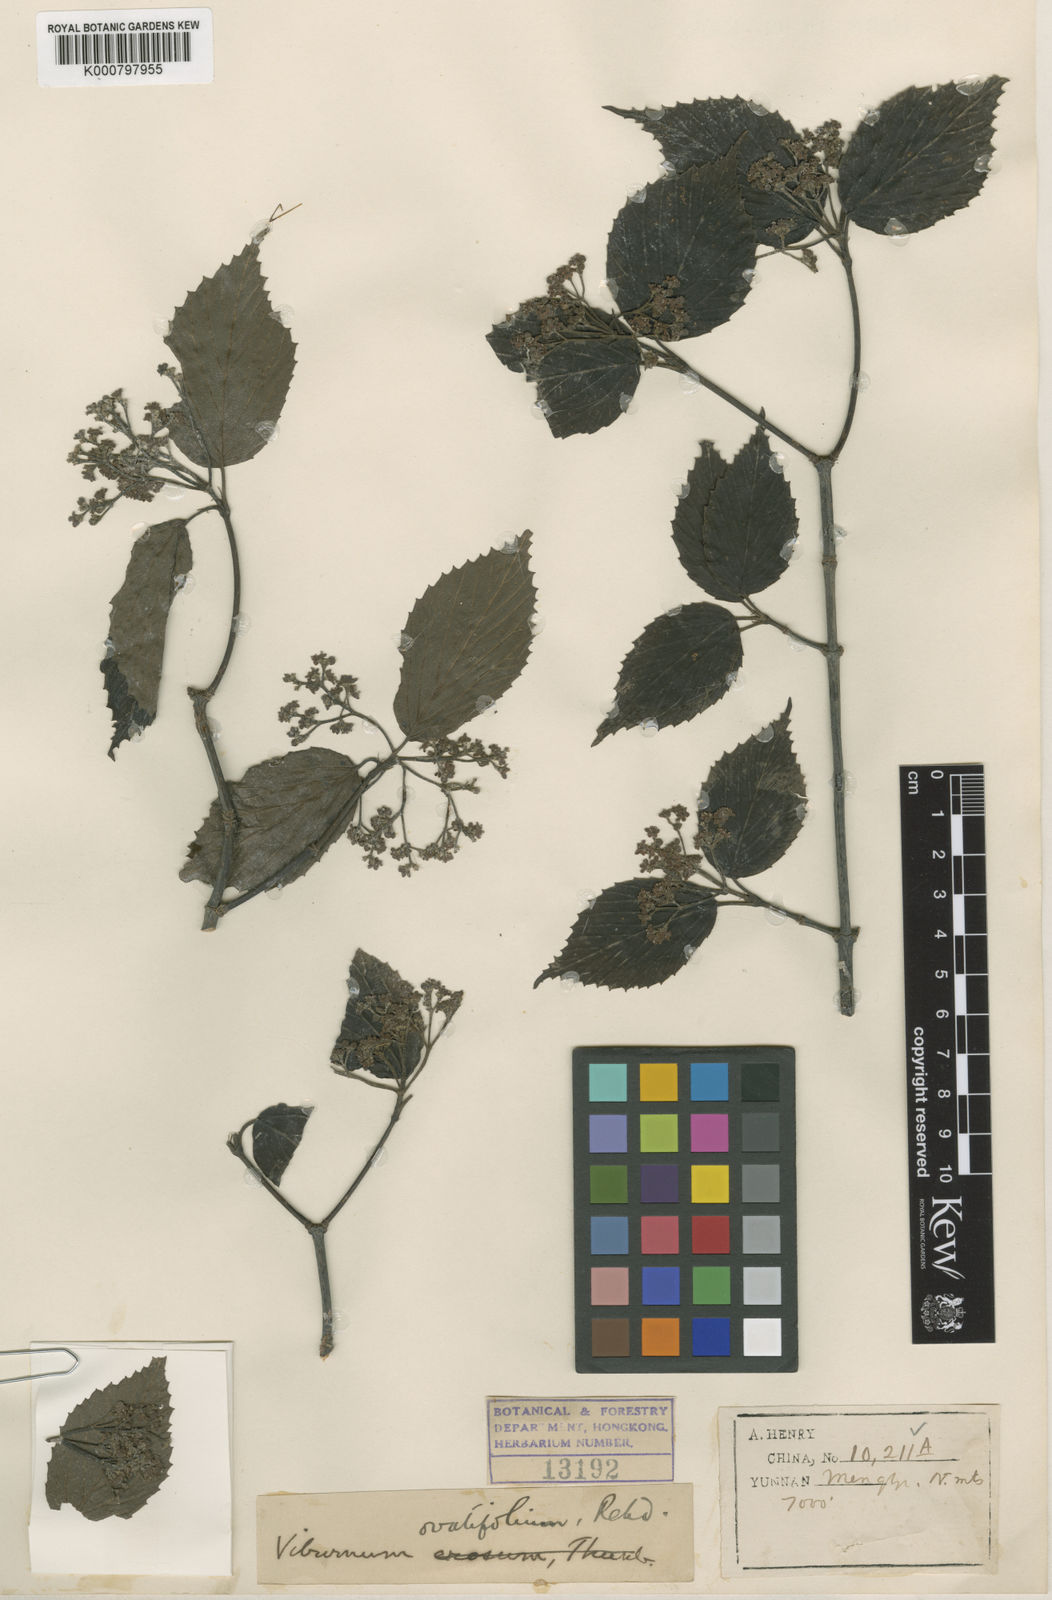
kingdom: Plantae
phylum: Tracheophyta
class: Magnoliopsida
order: Dipsacales
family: Viburnaceae
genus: Viburnum
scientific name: Viburnum betulifolium
